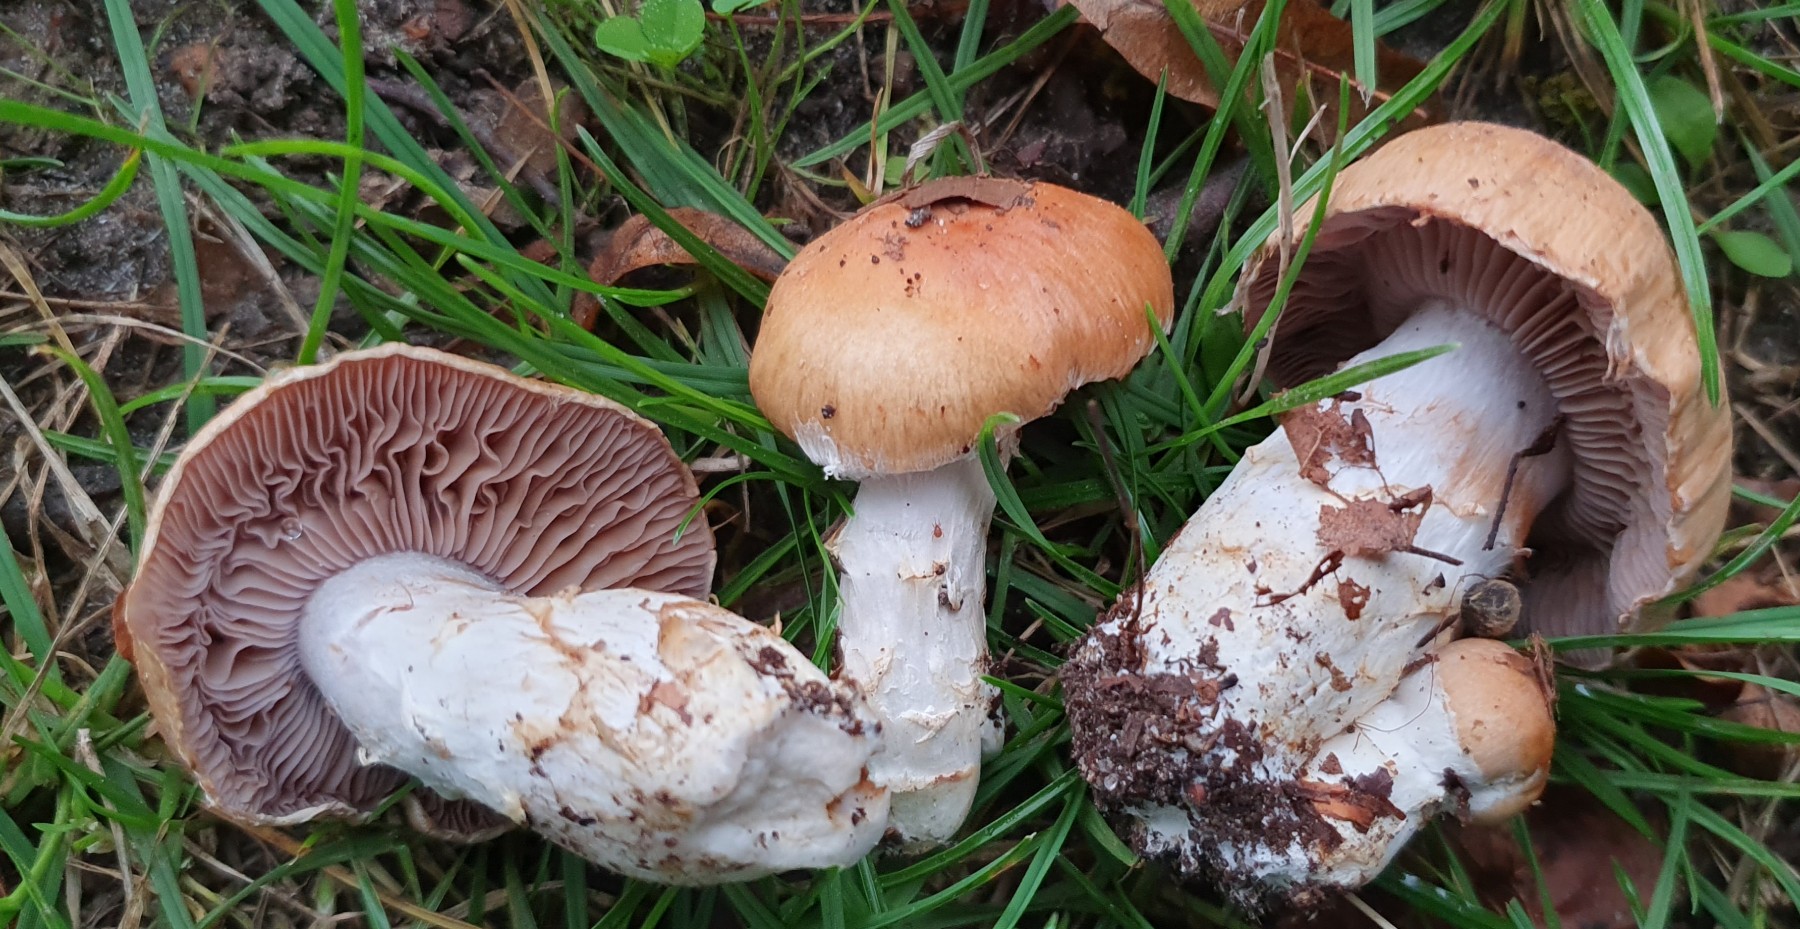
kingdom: Fungi
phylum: Basidiomycota
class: Agaricomycetes
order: Agaricales
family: Cortinariaceae
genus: Phlegmacium
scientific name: Phlegmacium obsoletum
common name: ulve-slørhat
